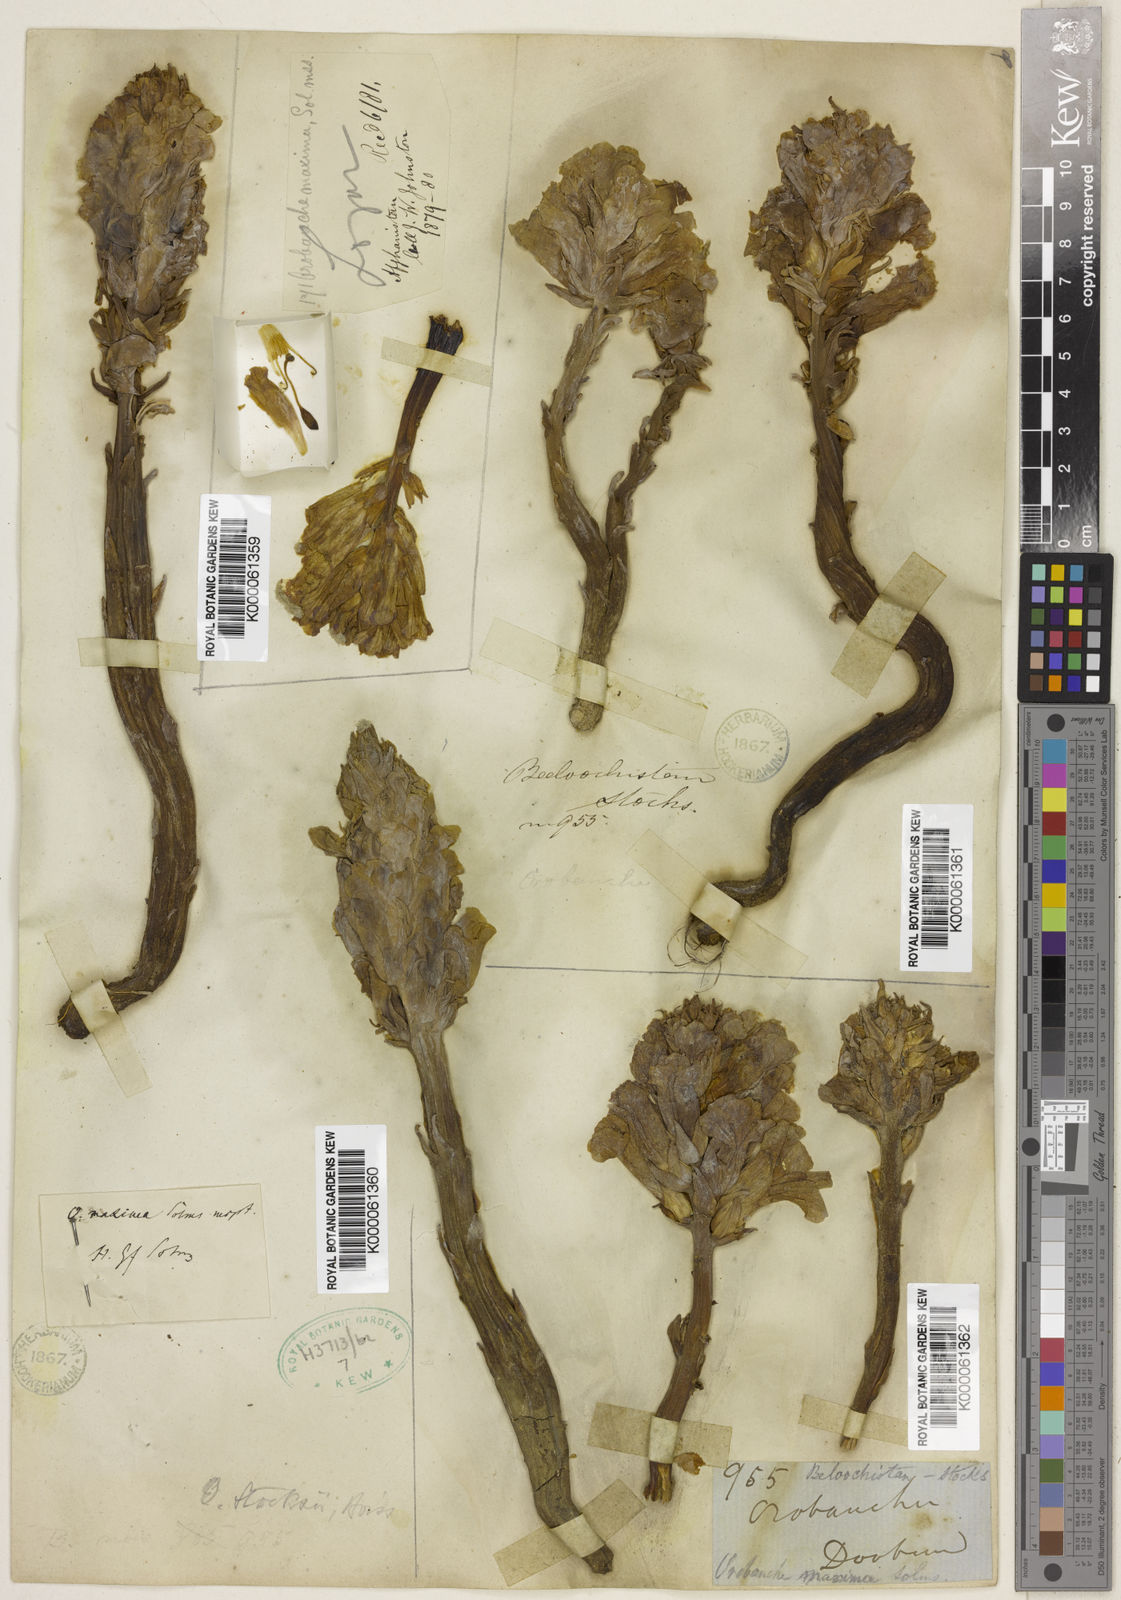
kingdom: Plantae
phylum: Tracheophyta
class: Magnoliopsida
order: Lamiales
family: Orobanchaceae
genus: Orobanche
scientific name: Orobanche stocksii
